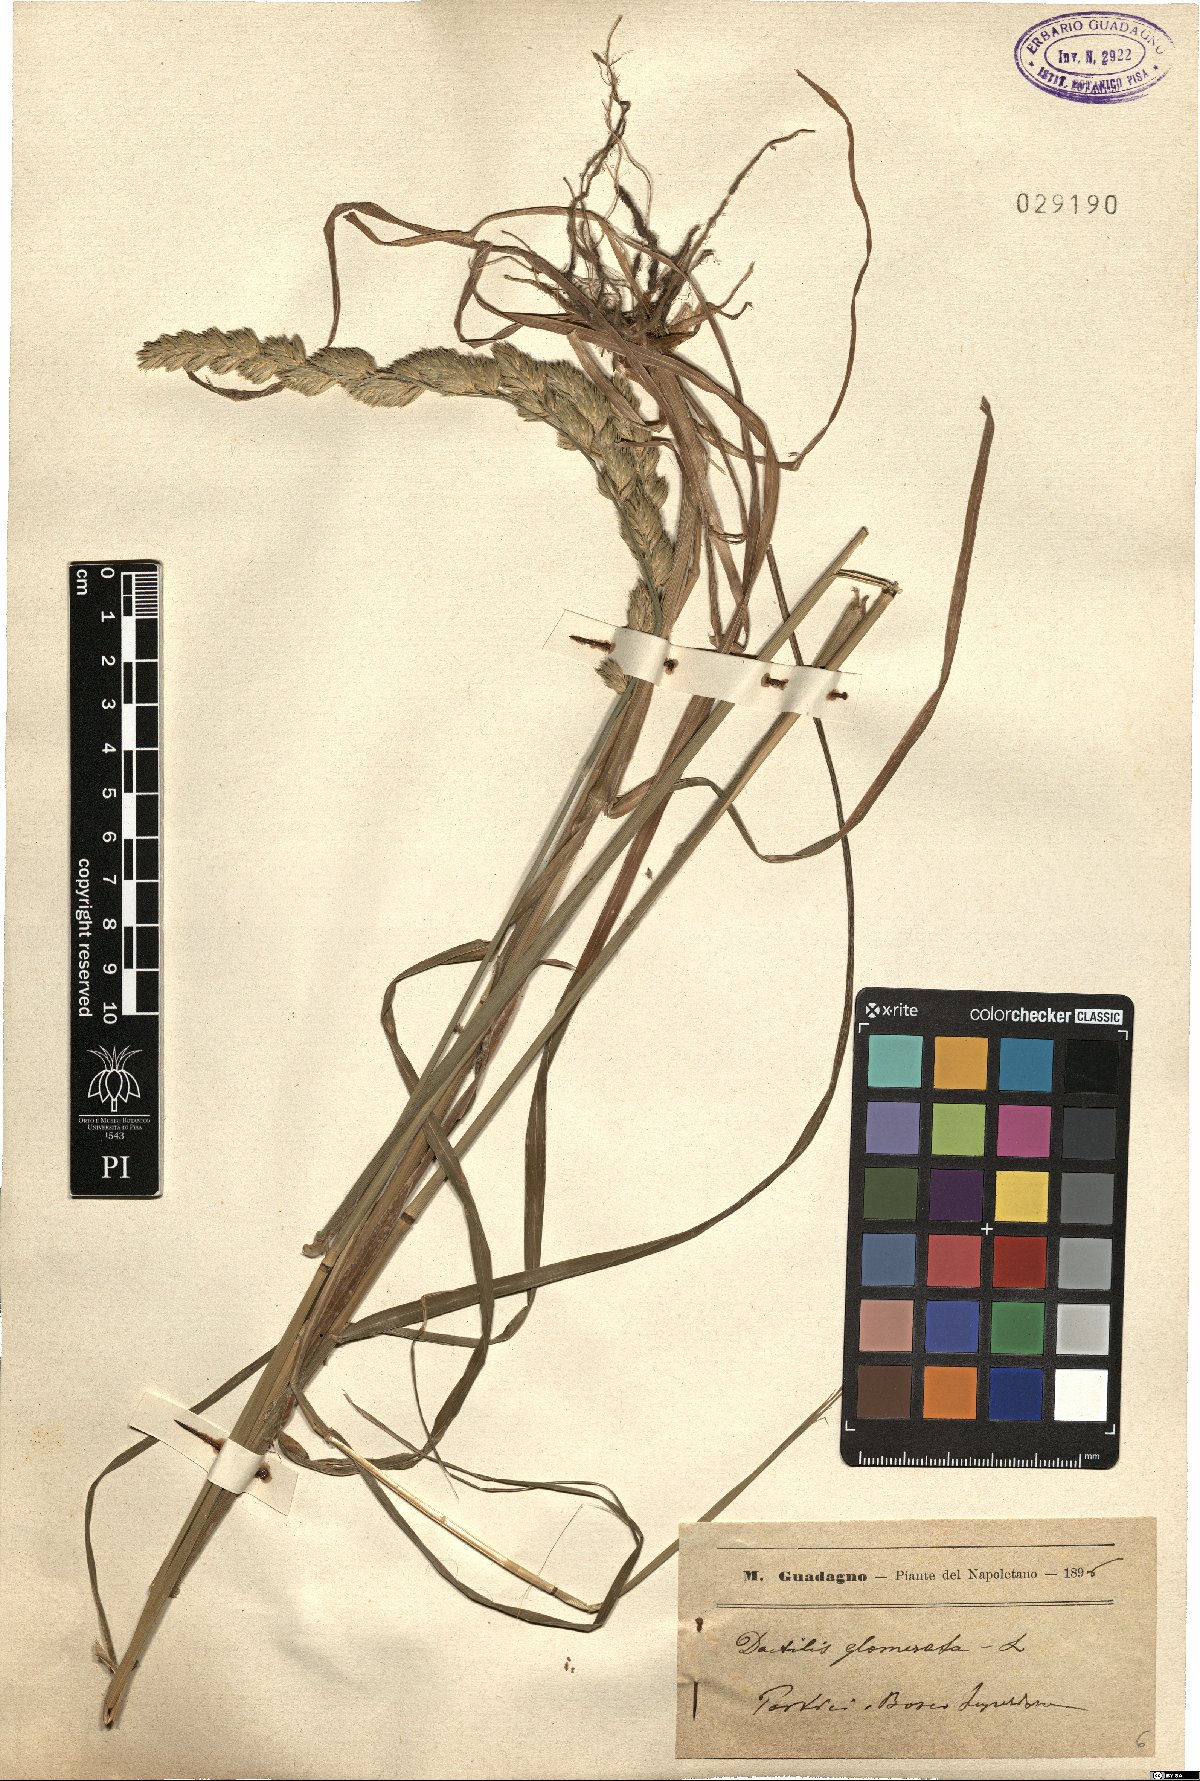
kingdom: Plantae
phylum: Tracheophyta
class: Liliopsida
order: Poales
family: Poaceae
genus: Dactylis
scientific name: Dactylis glomerata
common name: Orchardgrass
